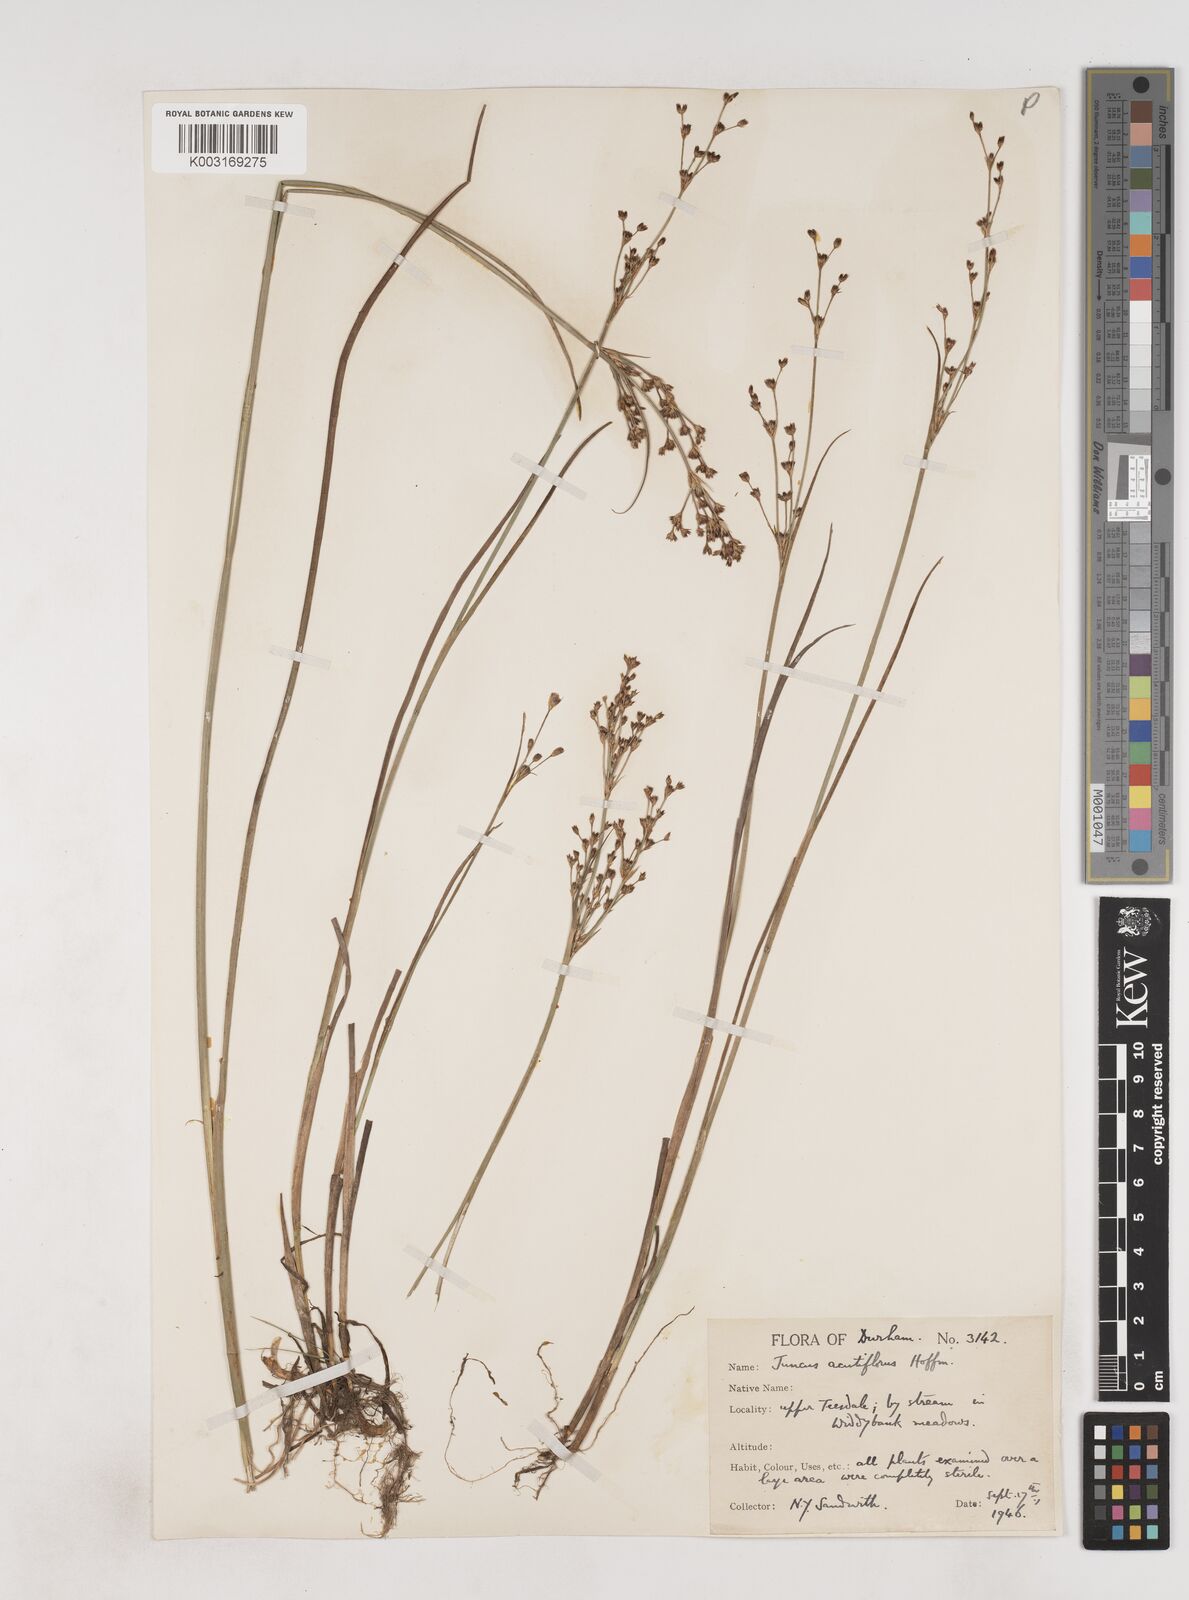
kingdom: Plantae
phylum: Tracheophyta
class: Liliopsida
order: Poales
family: Juncaceae
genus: Juncus
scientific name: Juncus acutiflorus
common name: Sharp-flowered rush
